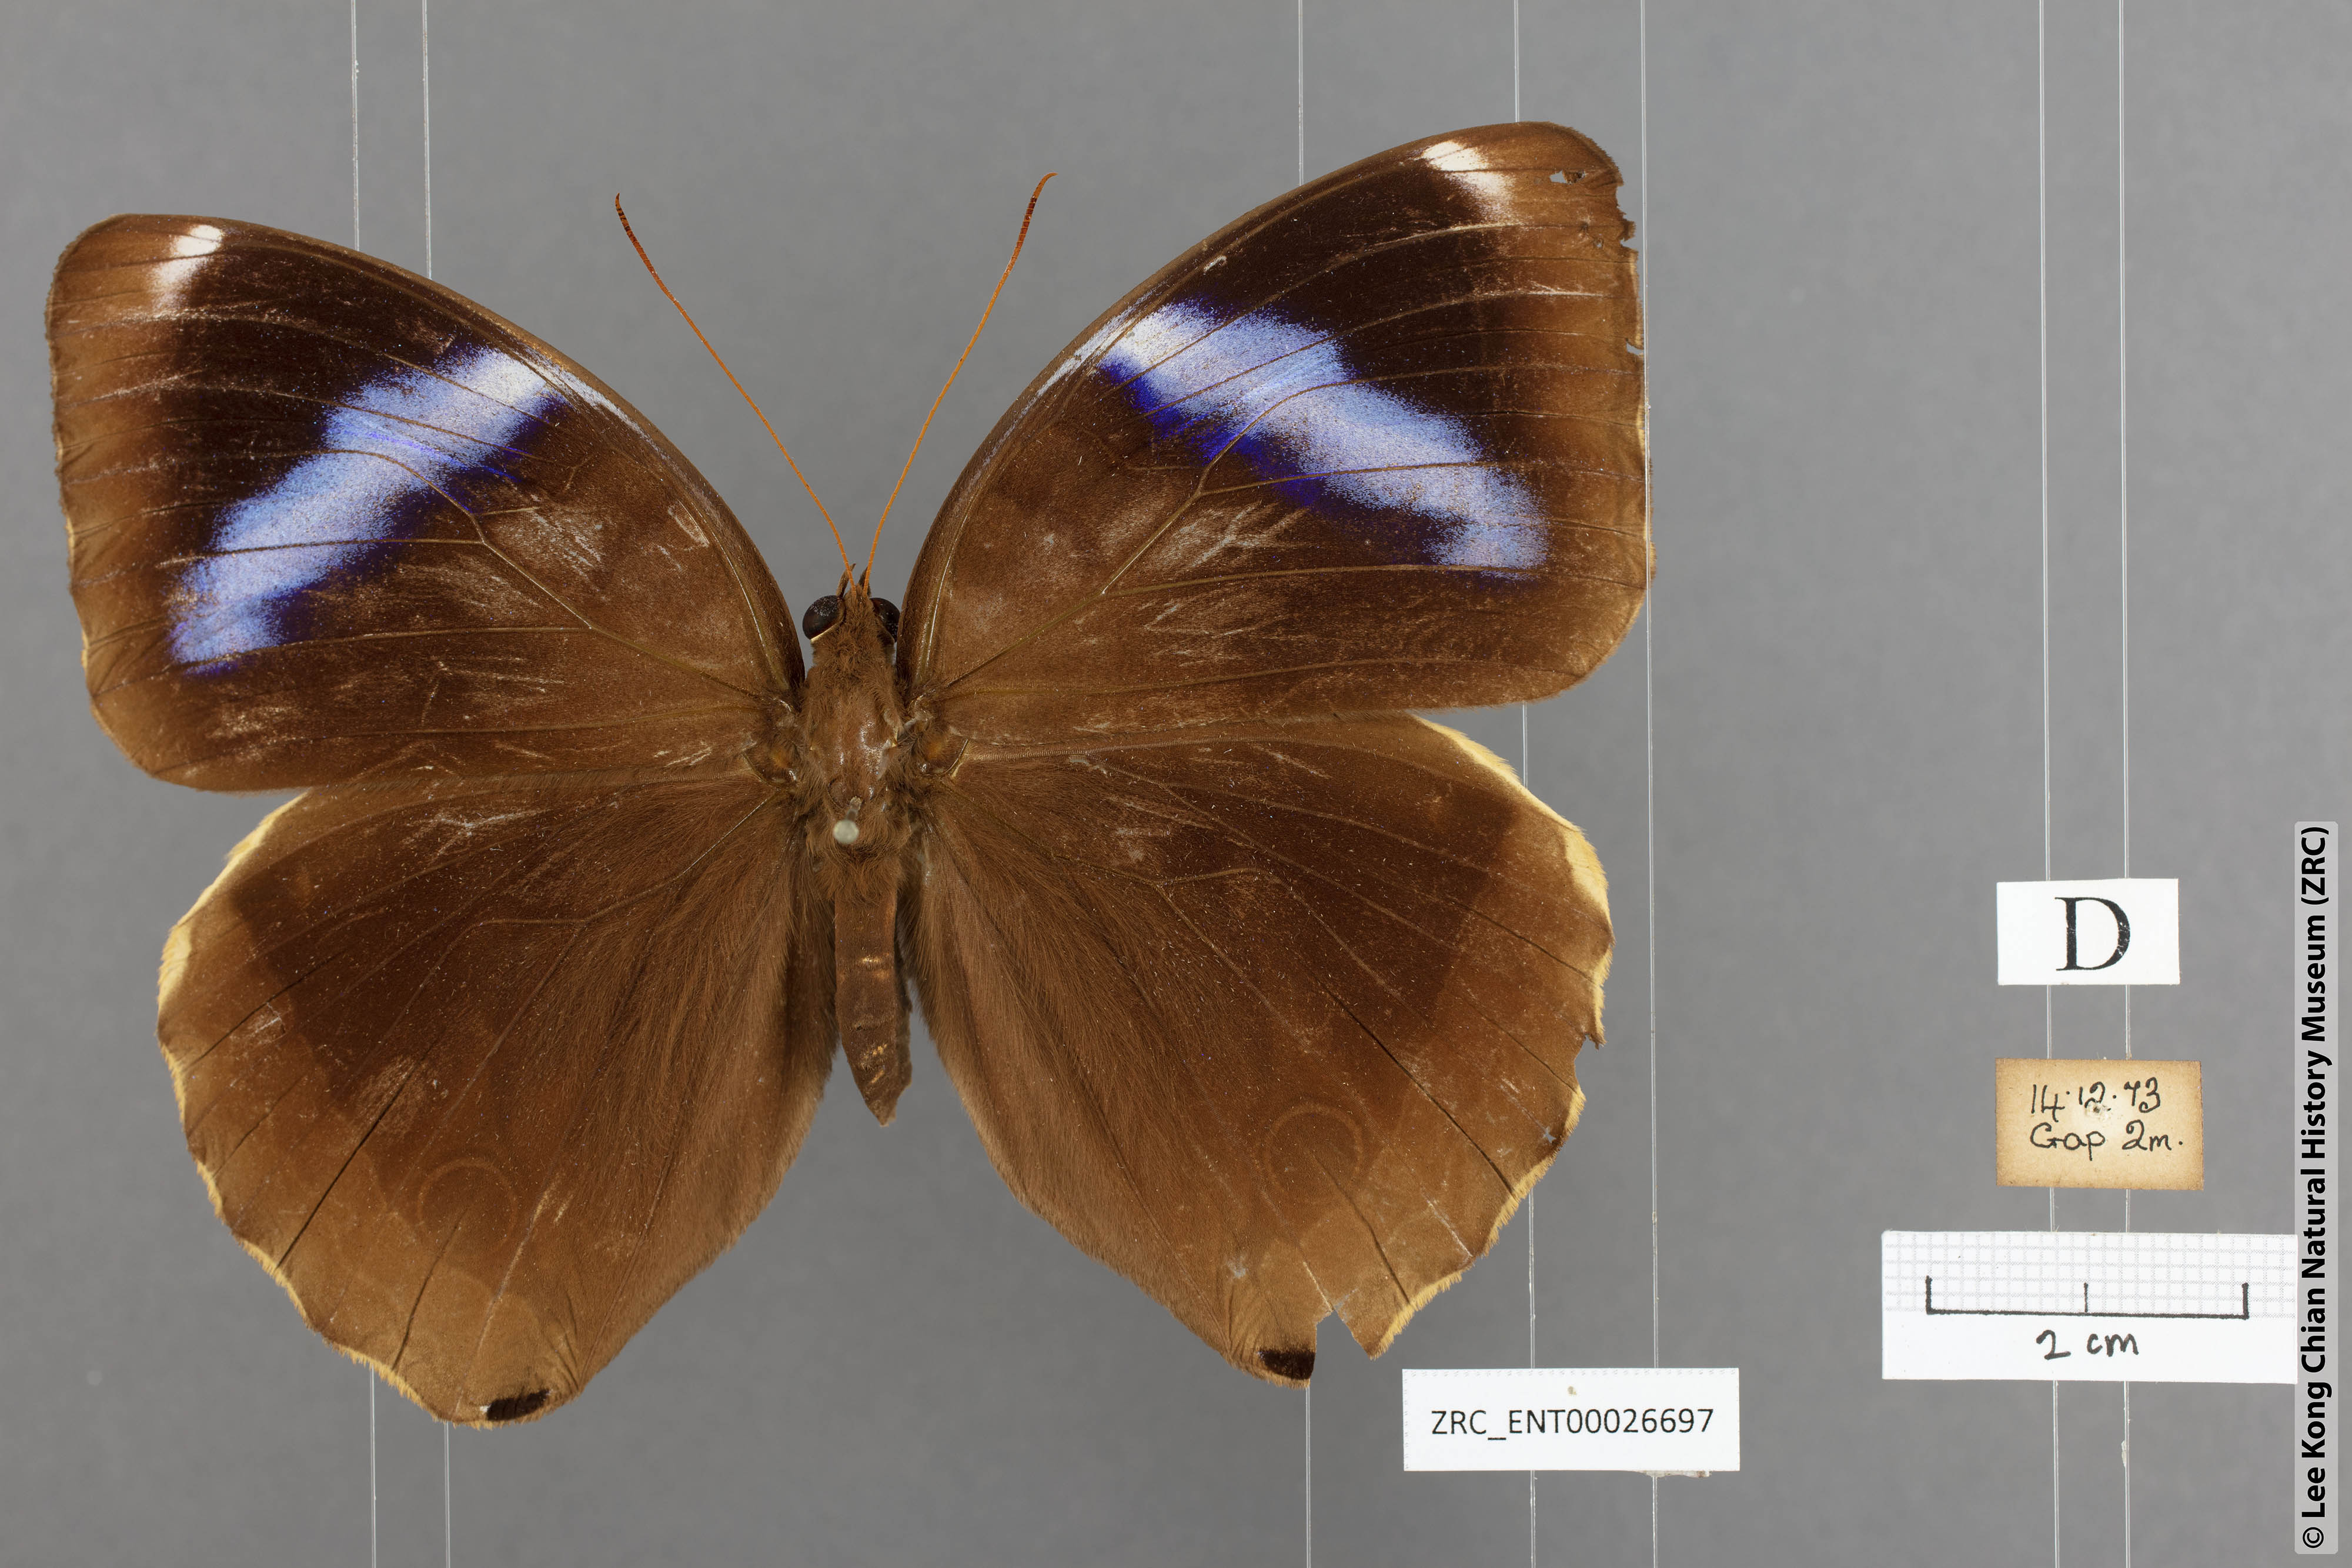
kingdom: Animalia
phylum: Arthropoda
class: Insecta
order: Lepidoptera
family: Nymphalidae
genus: Thaumantis
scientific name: Thaumantis odana
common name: Malayan jungle glory
